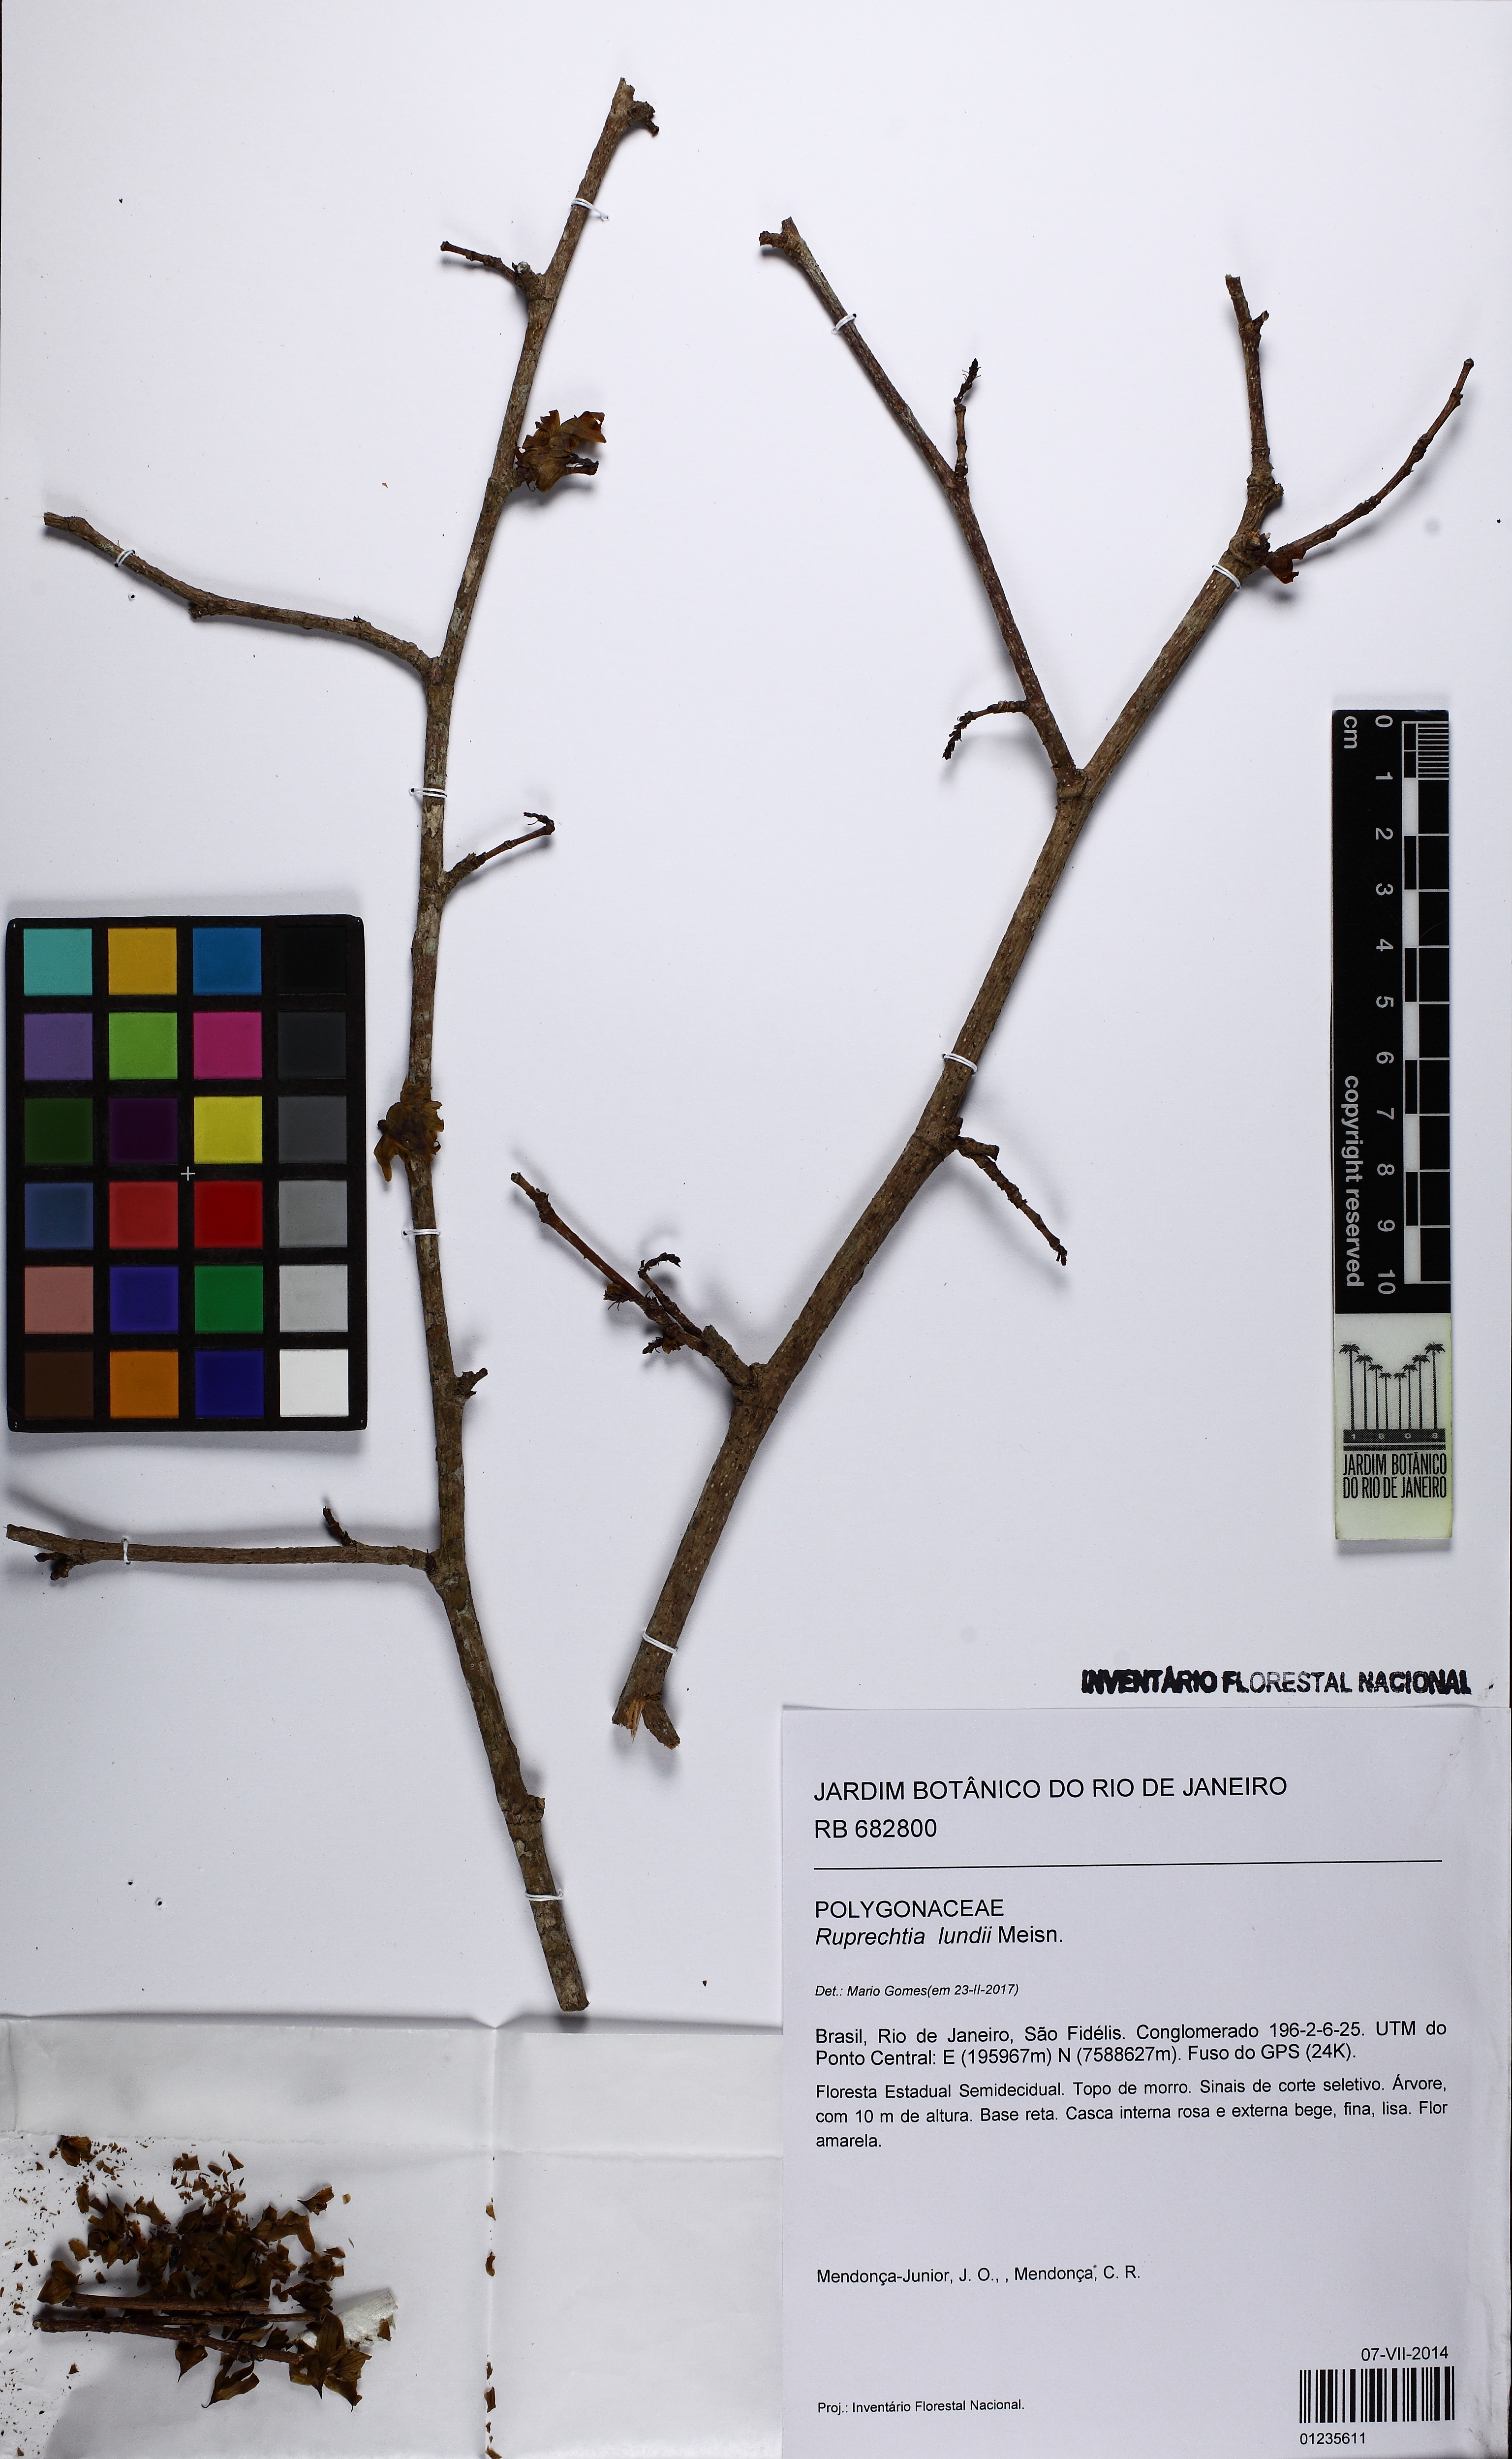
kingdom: Plantae
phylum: Tracheophyta
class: Magnoliopsida
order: Caryophyllales
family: Polygonaceae
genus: Ruprechtia
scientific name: Ruprechtia lundii
